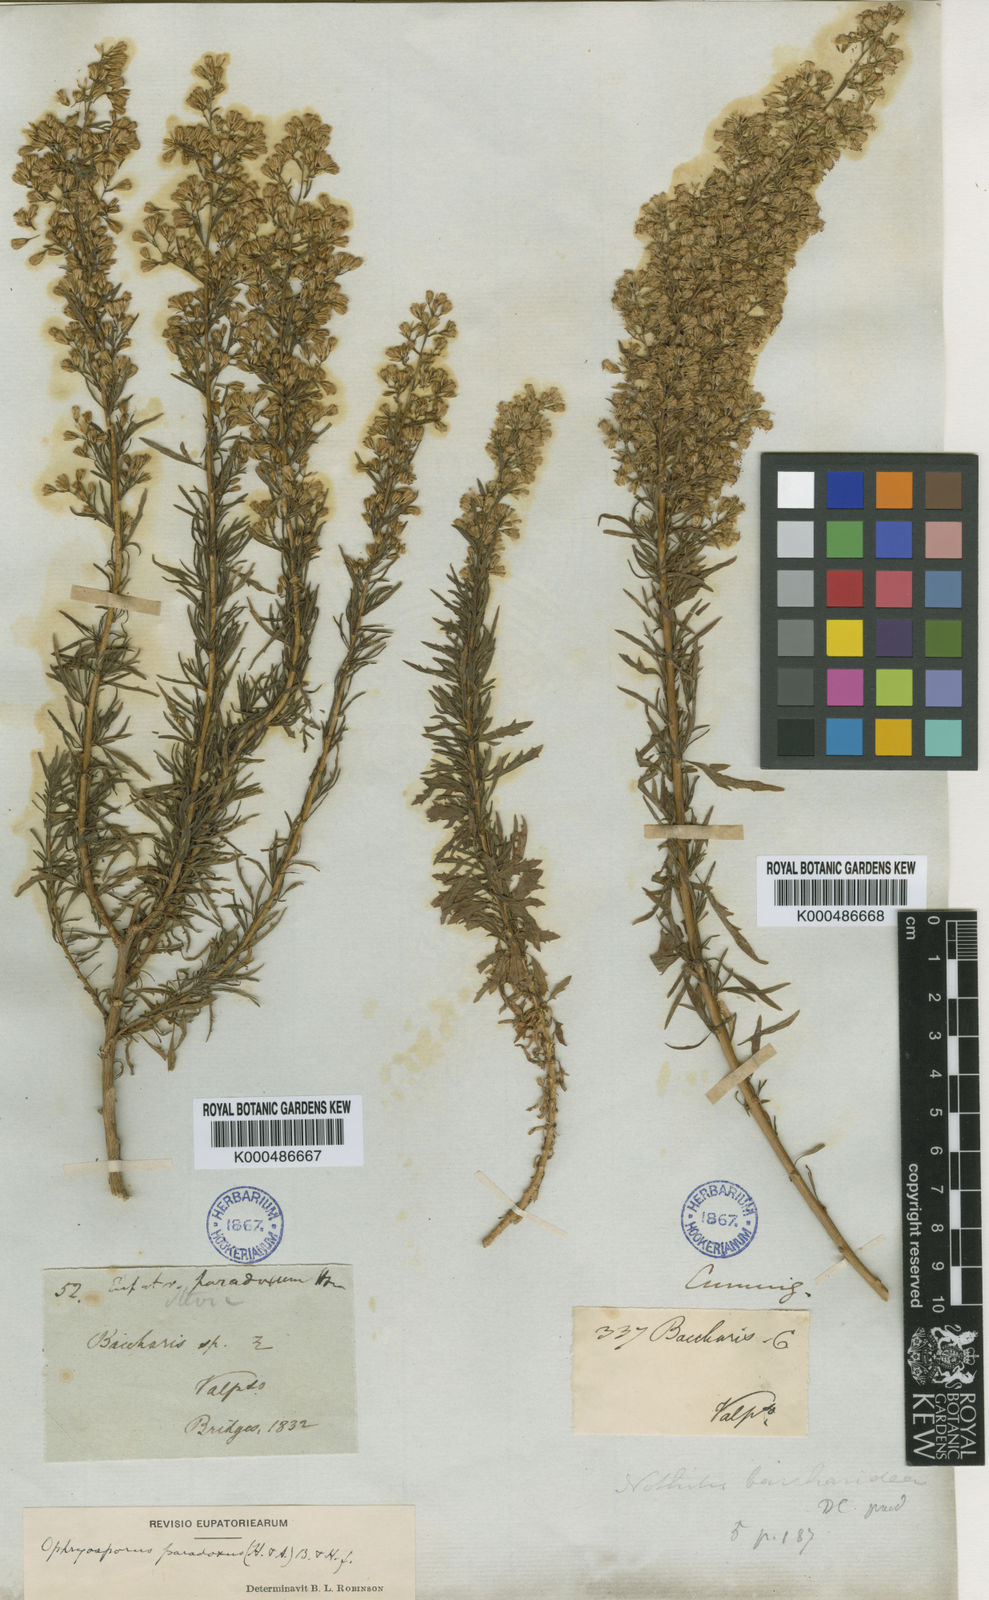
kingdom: Plantae
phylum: Tracheophyta
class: Magnoliopsida
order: Asterales
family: Asteraceae
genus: Ophryosporus
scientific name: Ophryosporus paradoxus
